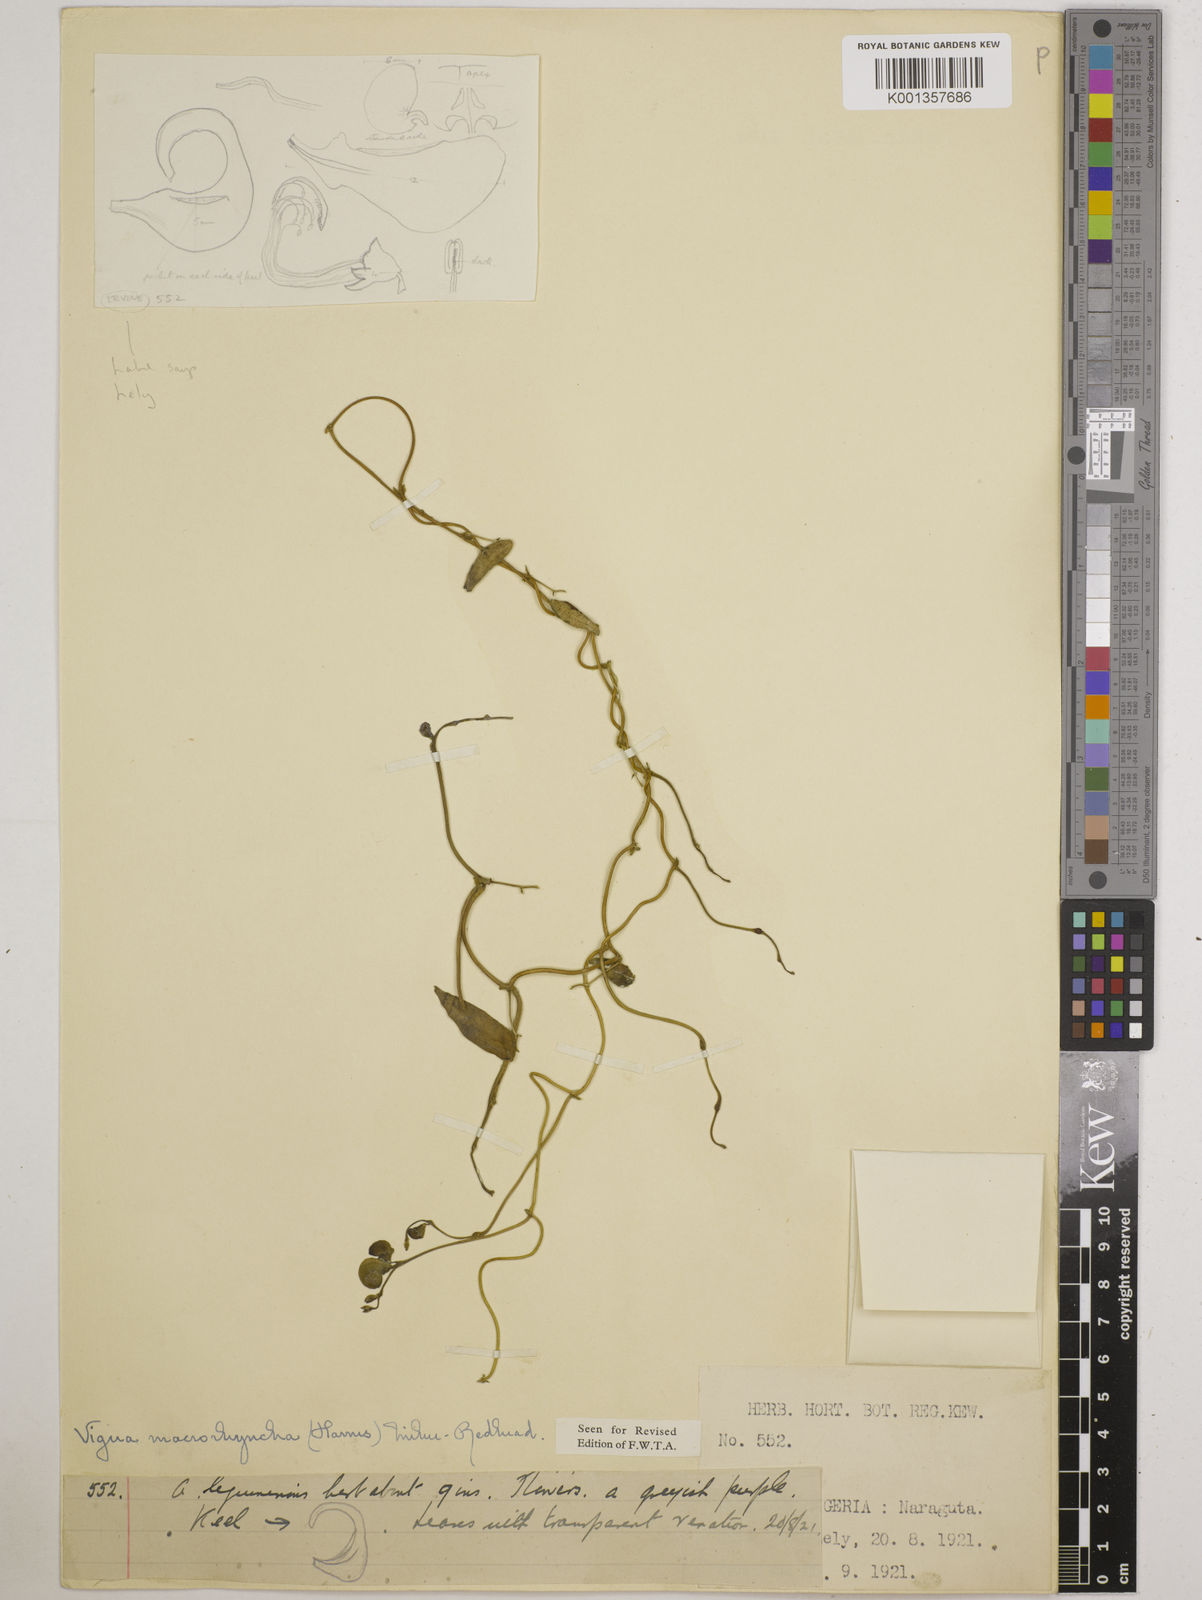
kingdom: Plantae
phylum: Tracheophyta
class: Magnoliopsida
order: Fabales
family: Fabaceae
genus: Wajira
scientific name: Wajira grahamiana
